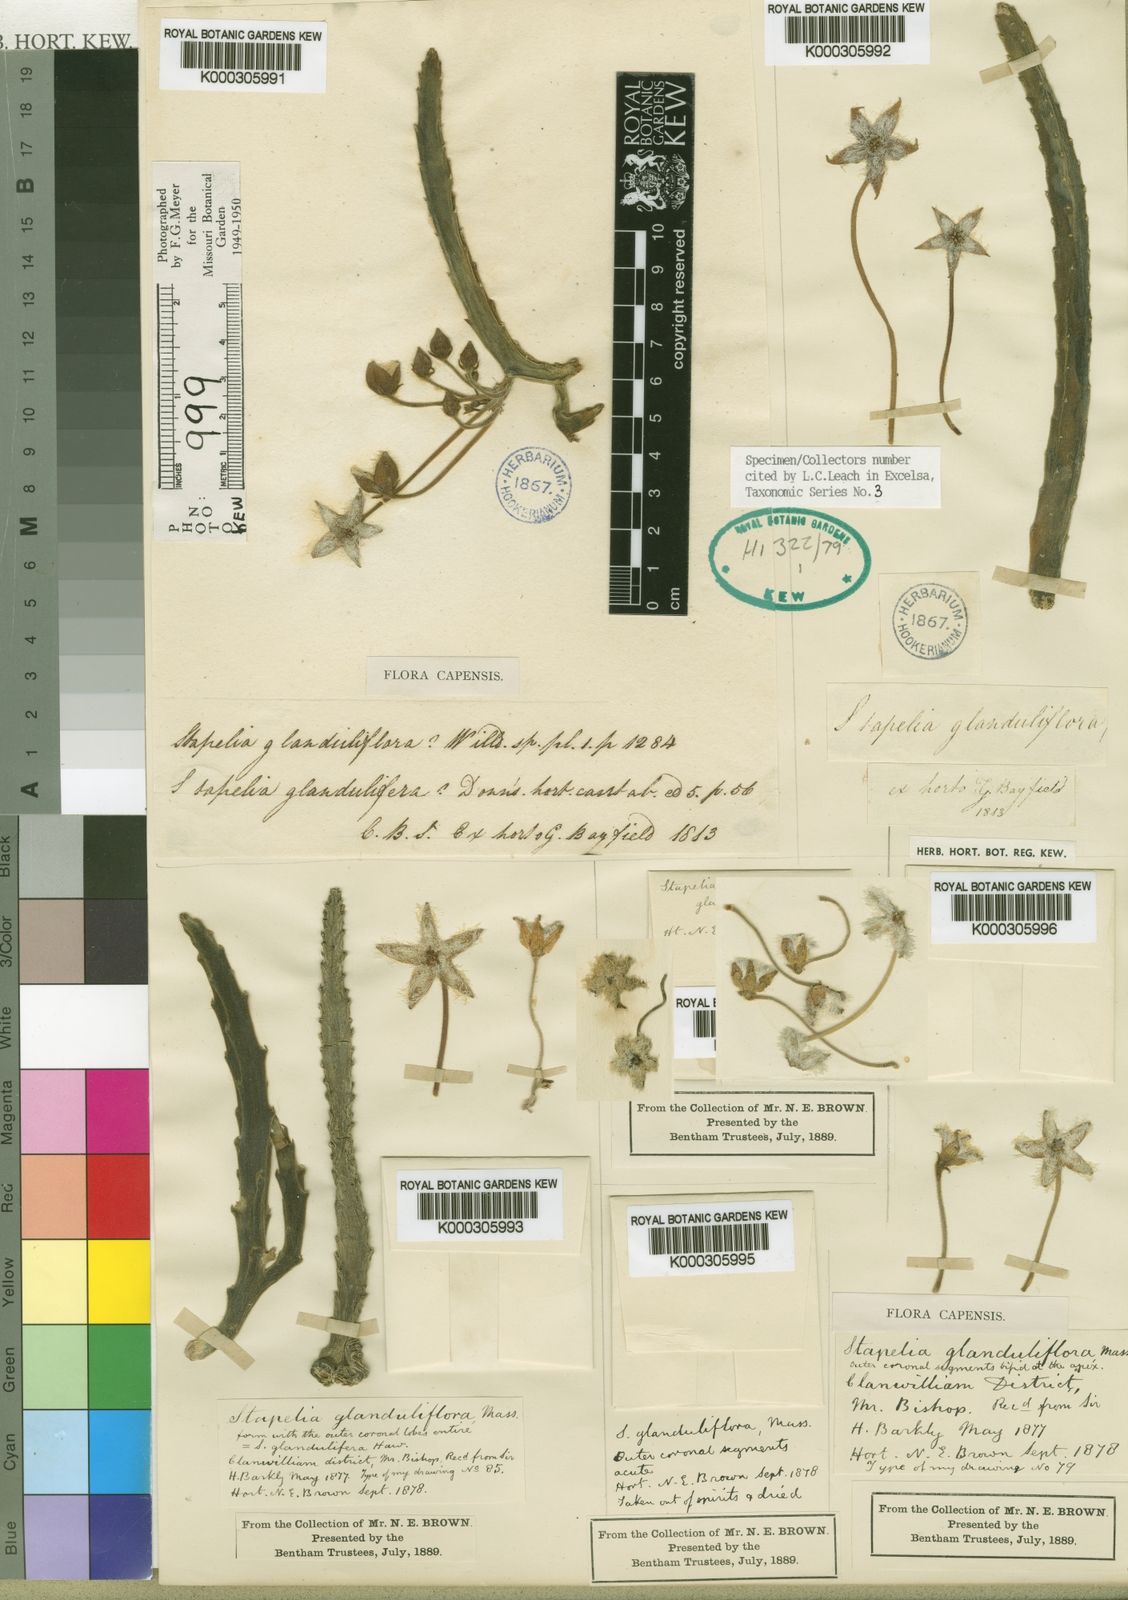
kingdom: Plantae
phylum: Tracheophyta
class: Magnoliopsida
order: Gentianales
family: Apocynaceae
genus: Ceropegia
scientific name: Ceropegia glanduliflora
